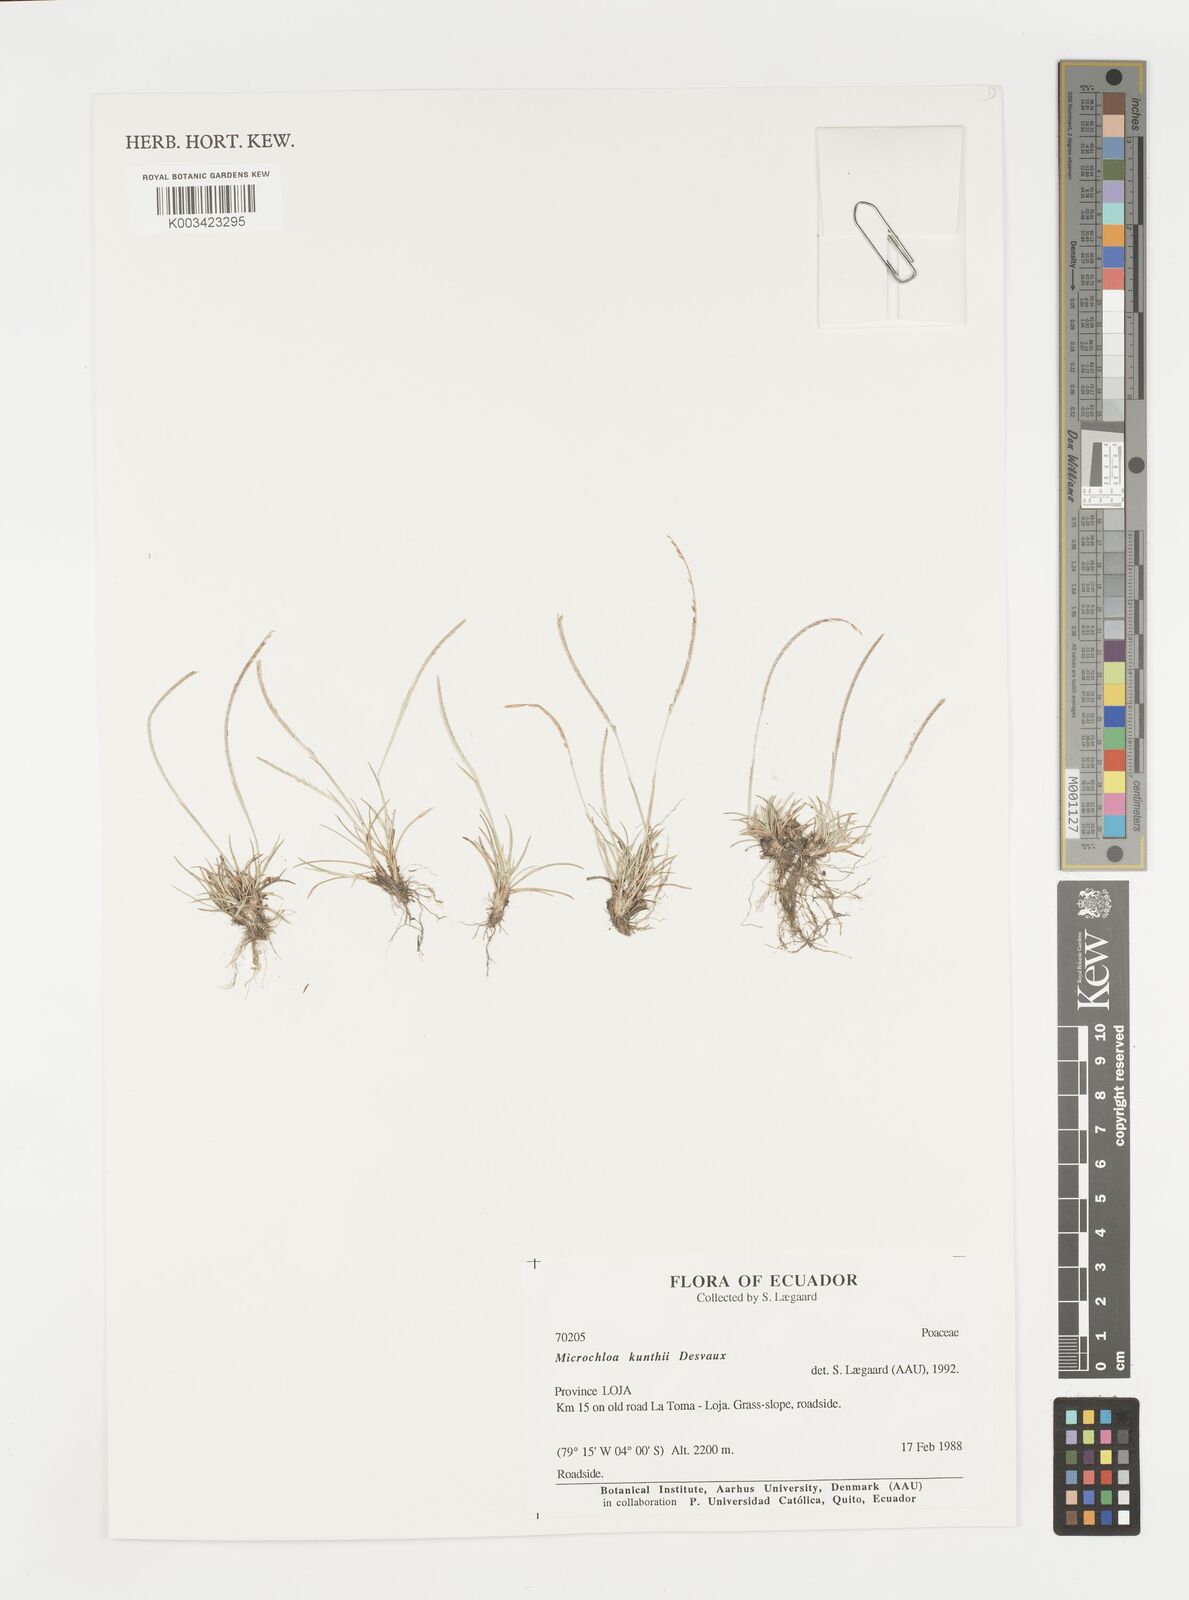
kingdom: Plantae
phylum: Tracheophyta
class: Liliopsida
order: Poales
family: Poaceae
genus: Microchloa
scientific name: Microchloa kunthii
